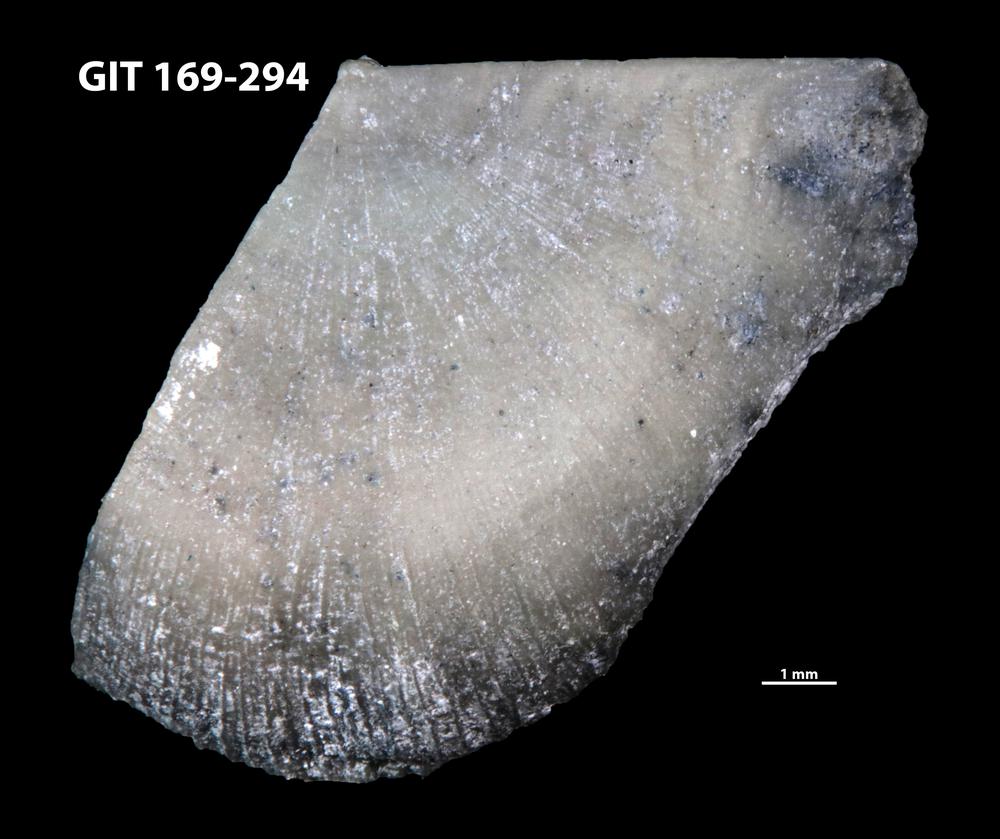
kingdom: Animalia
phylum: Brachiopoda
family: Amphistrophiidae
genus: Eoamphistrophia
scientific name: Eoamphistrophia whittardi
